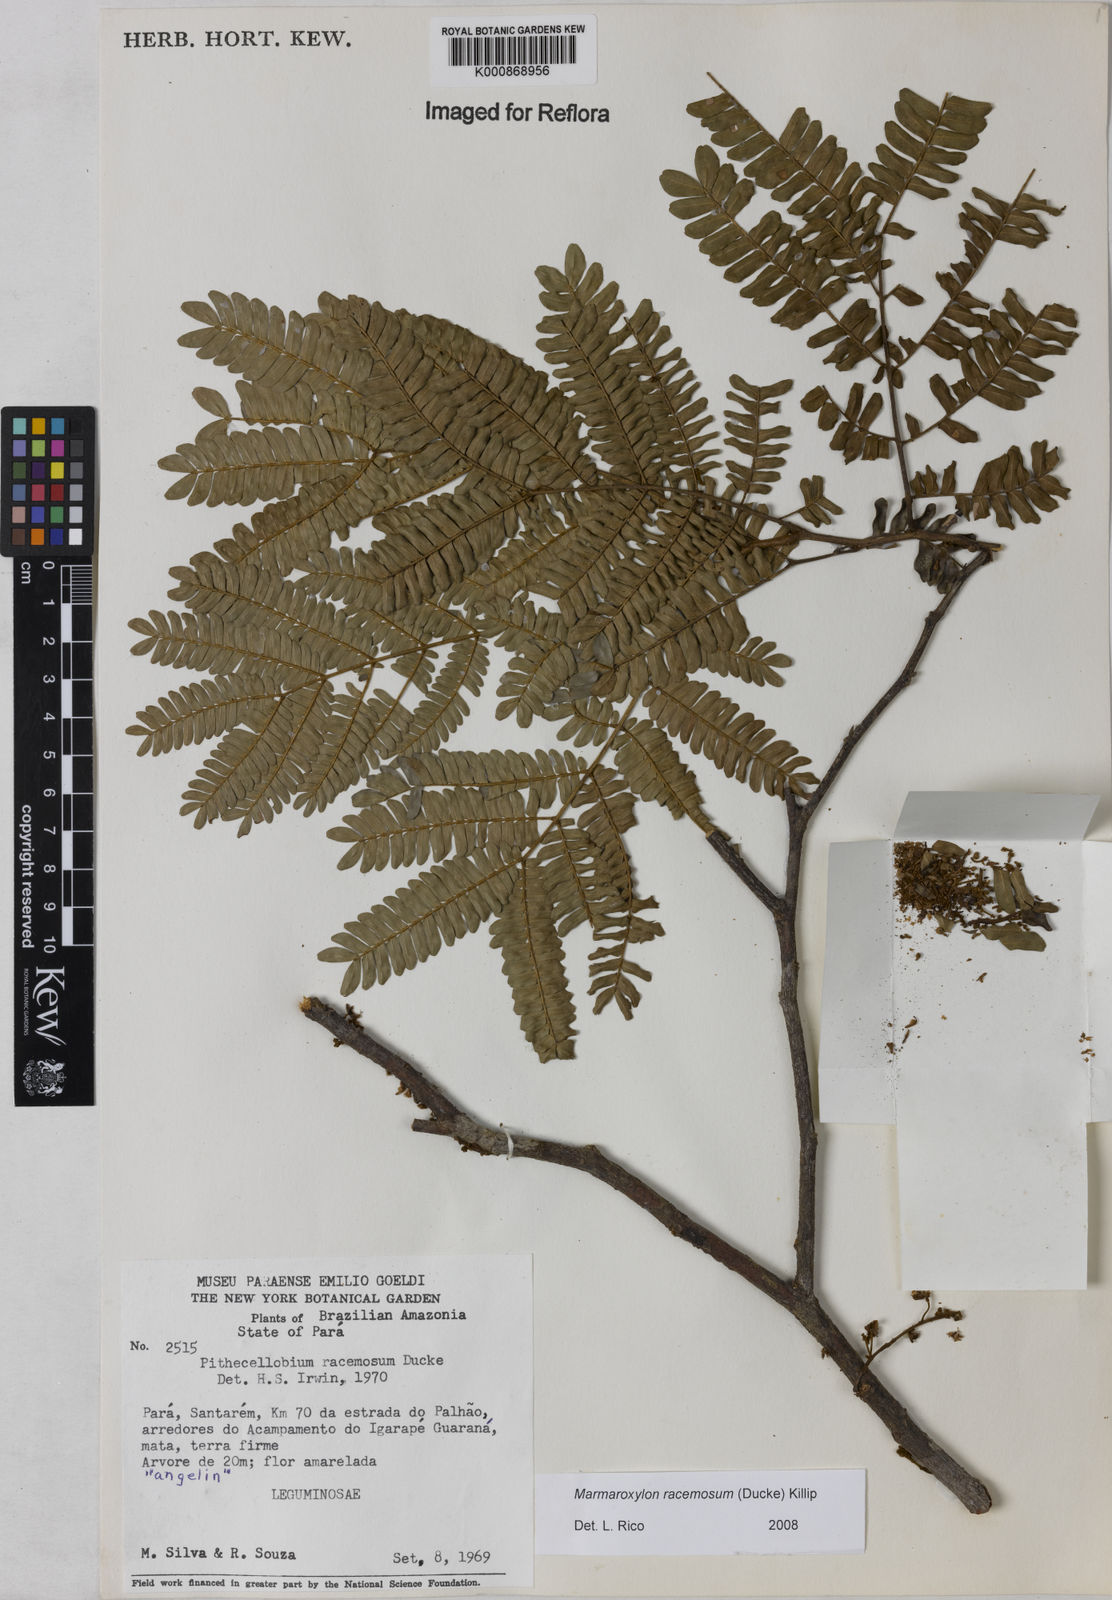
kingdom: Plantae
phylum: Tracheophyta
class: Magnoliopsida
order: Fabales
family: Fabaceae
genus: Zygia
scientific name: Zygia racemosa
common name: Marblewood
